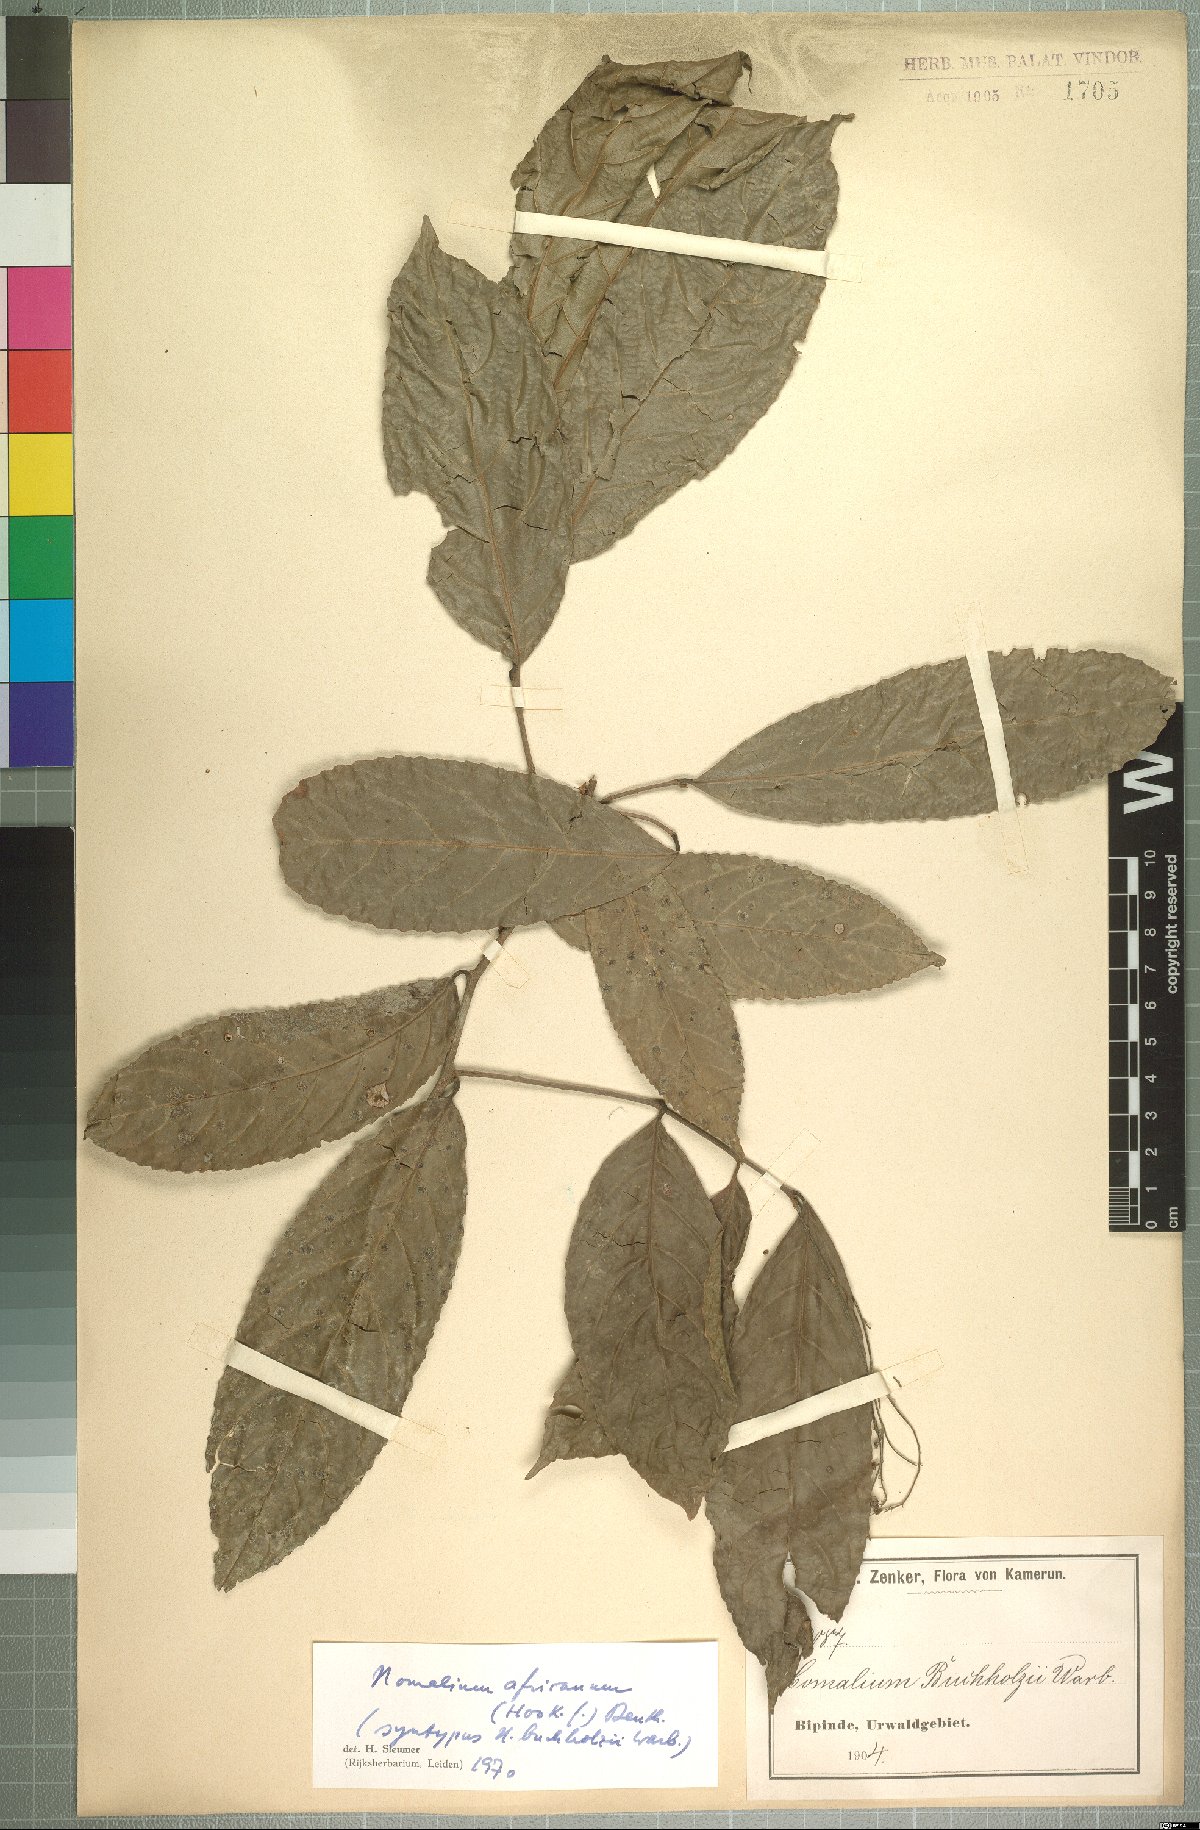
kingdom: Plantae
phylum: Tracheophyta
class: Magnoliopsida
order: Malpighiales
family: Salicaceae
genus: Homalium
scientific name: Homalium africanum
